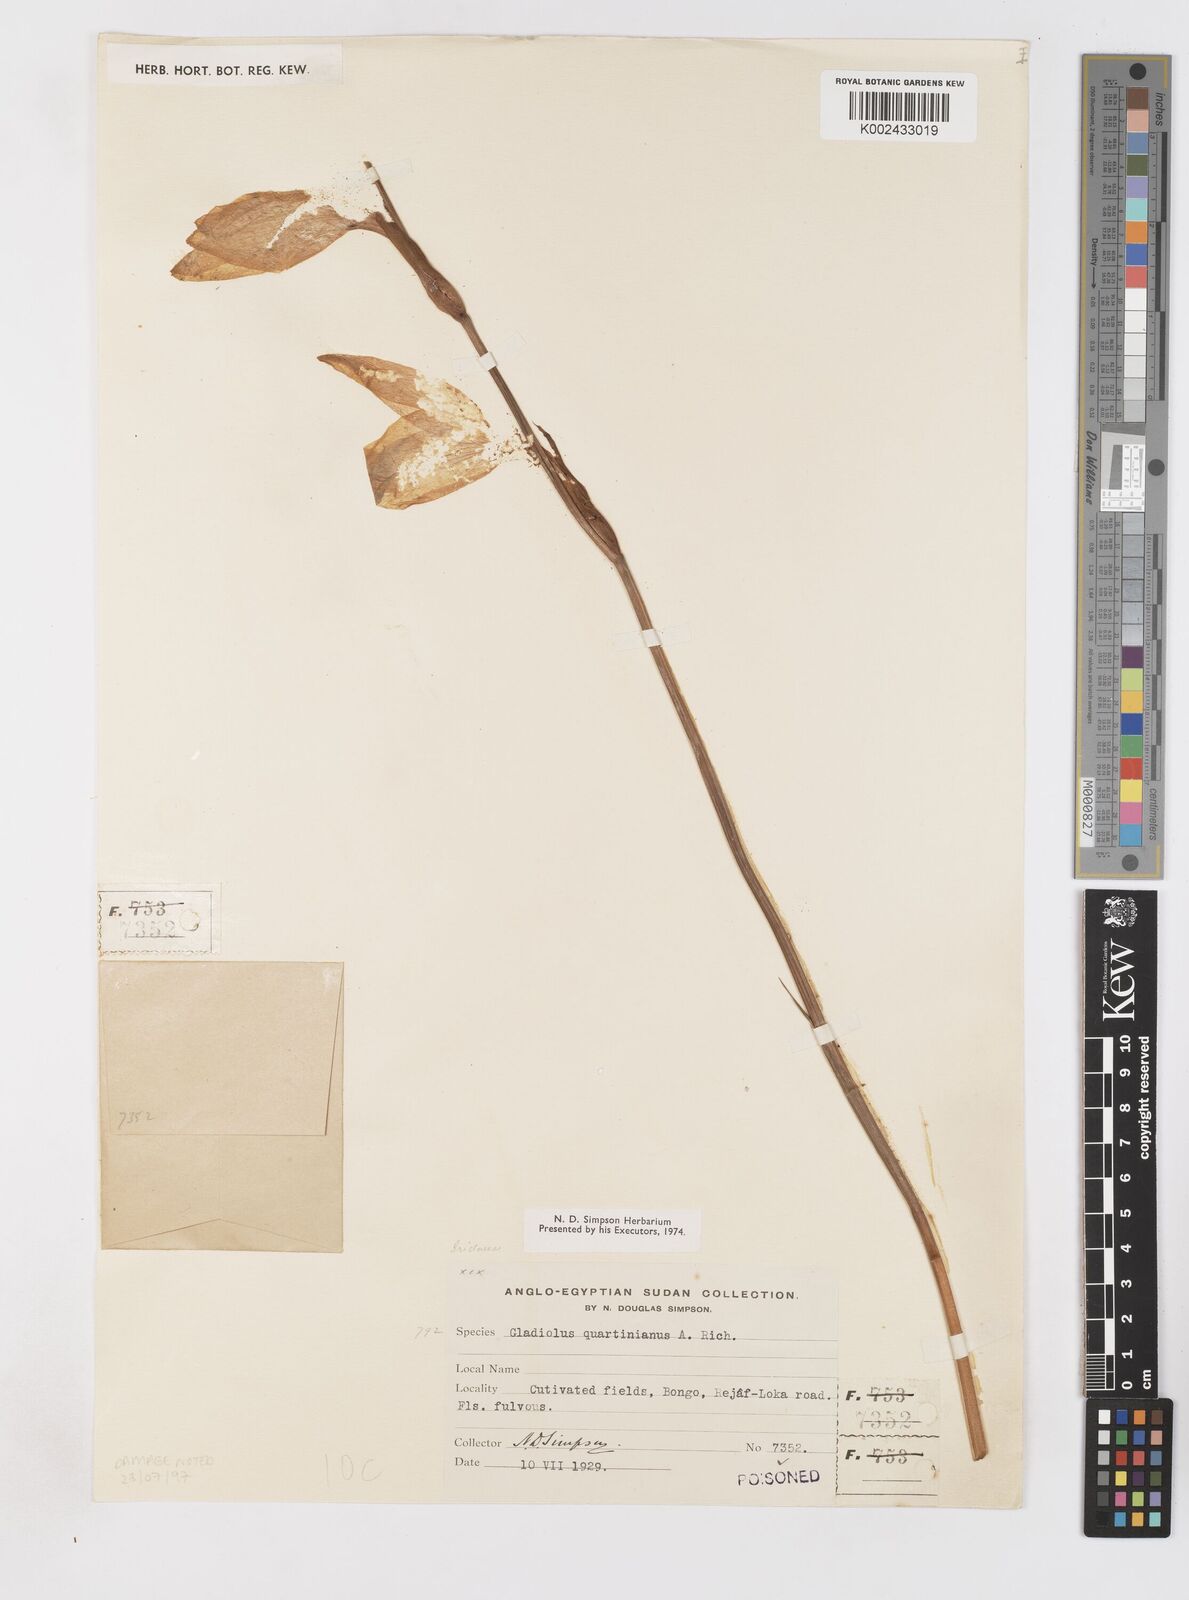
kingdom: Plantae
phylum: Tracheophyta
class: Liliopsida
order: Asparagales
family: Iridaceae
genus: Gladiolus
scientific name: Gladiolus dalenii
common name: Cornflag
